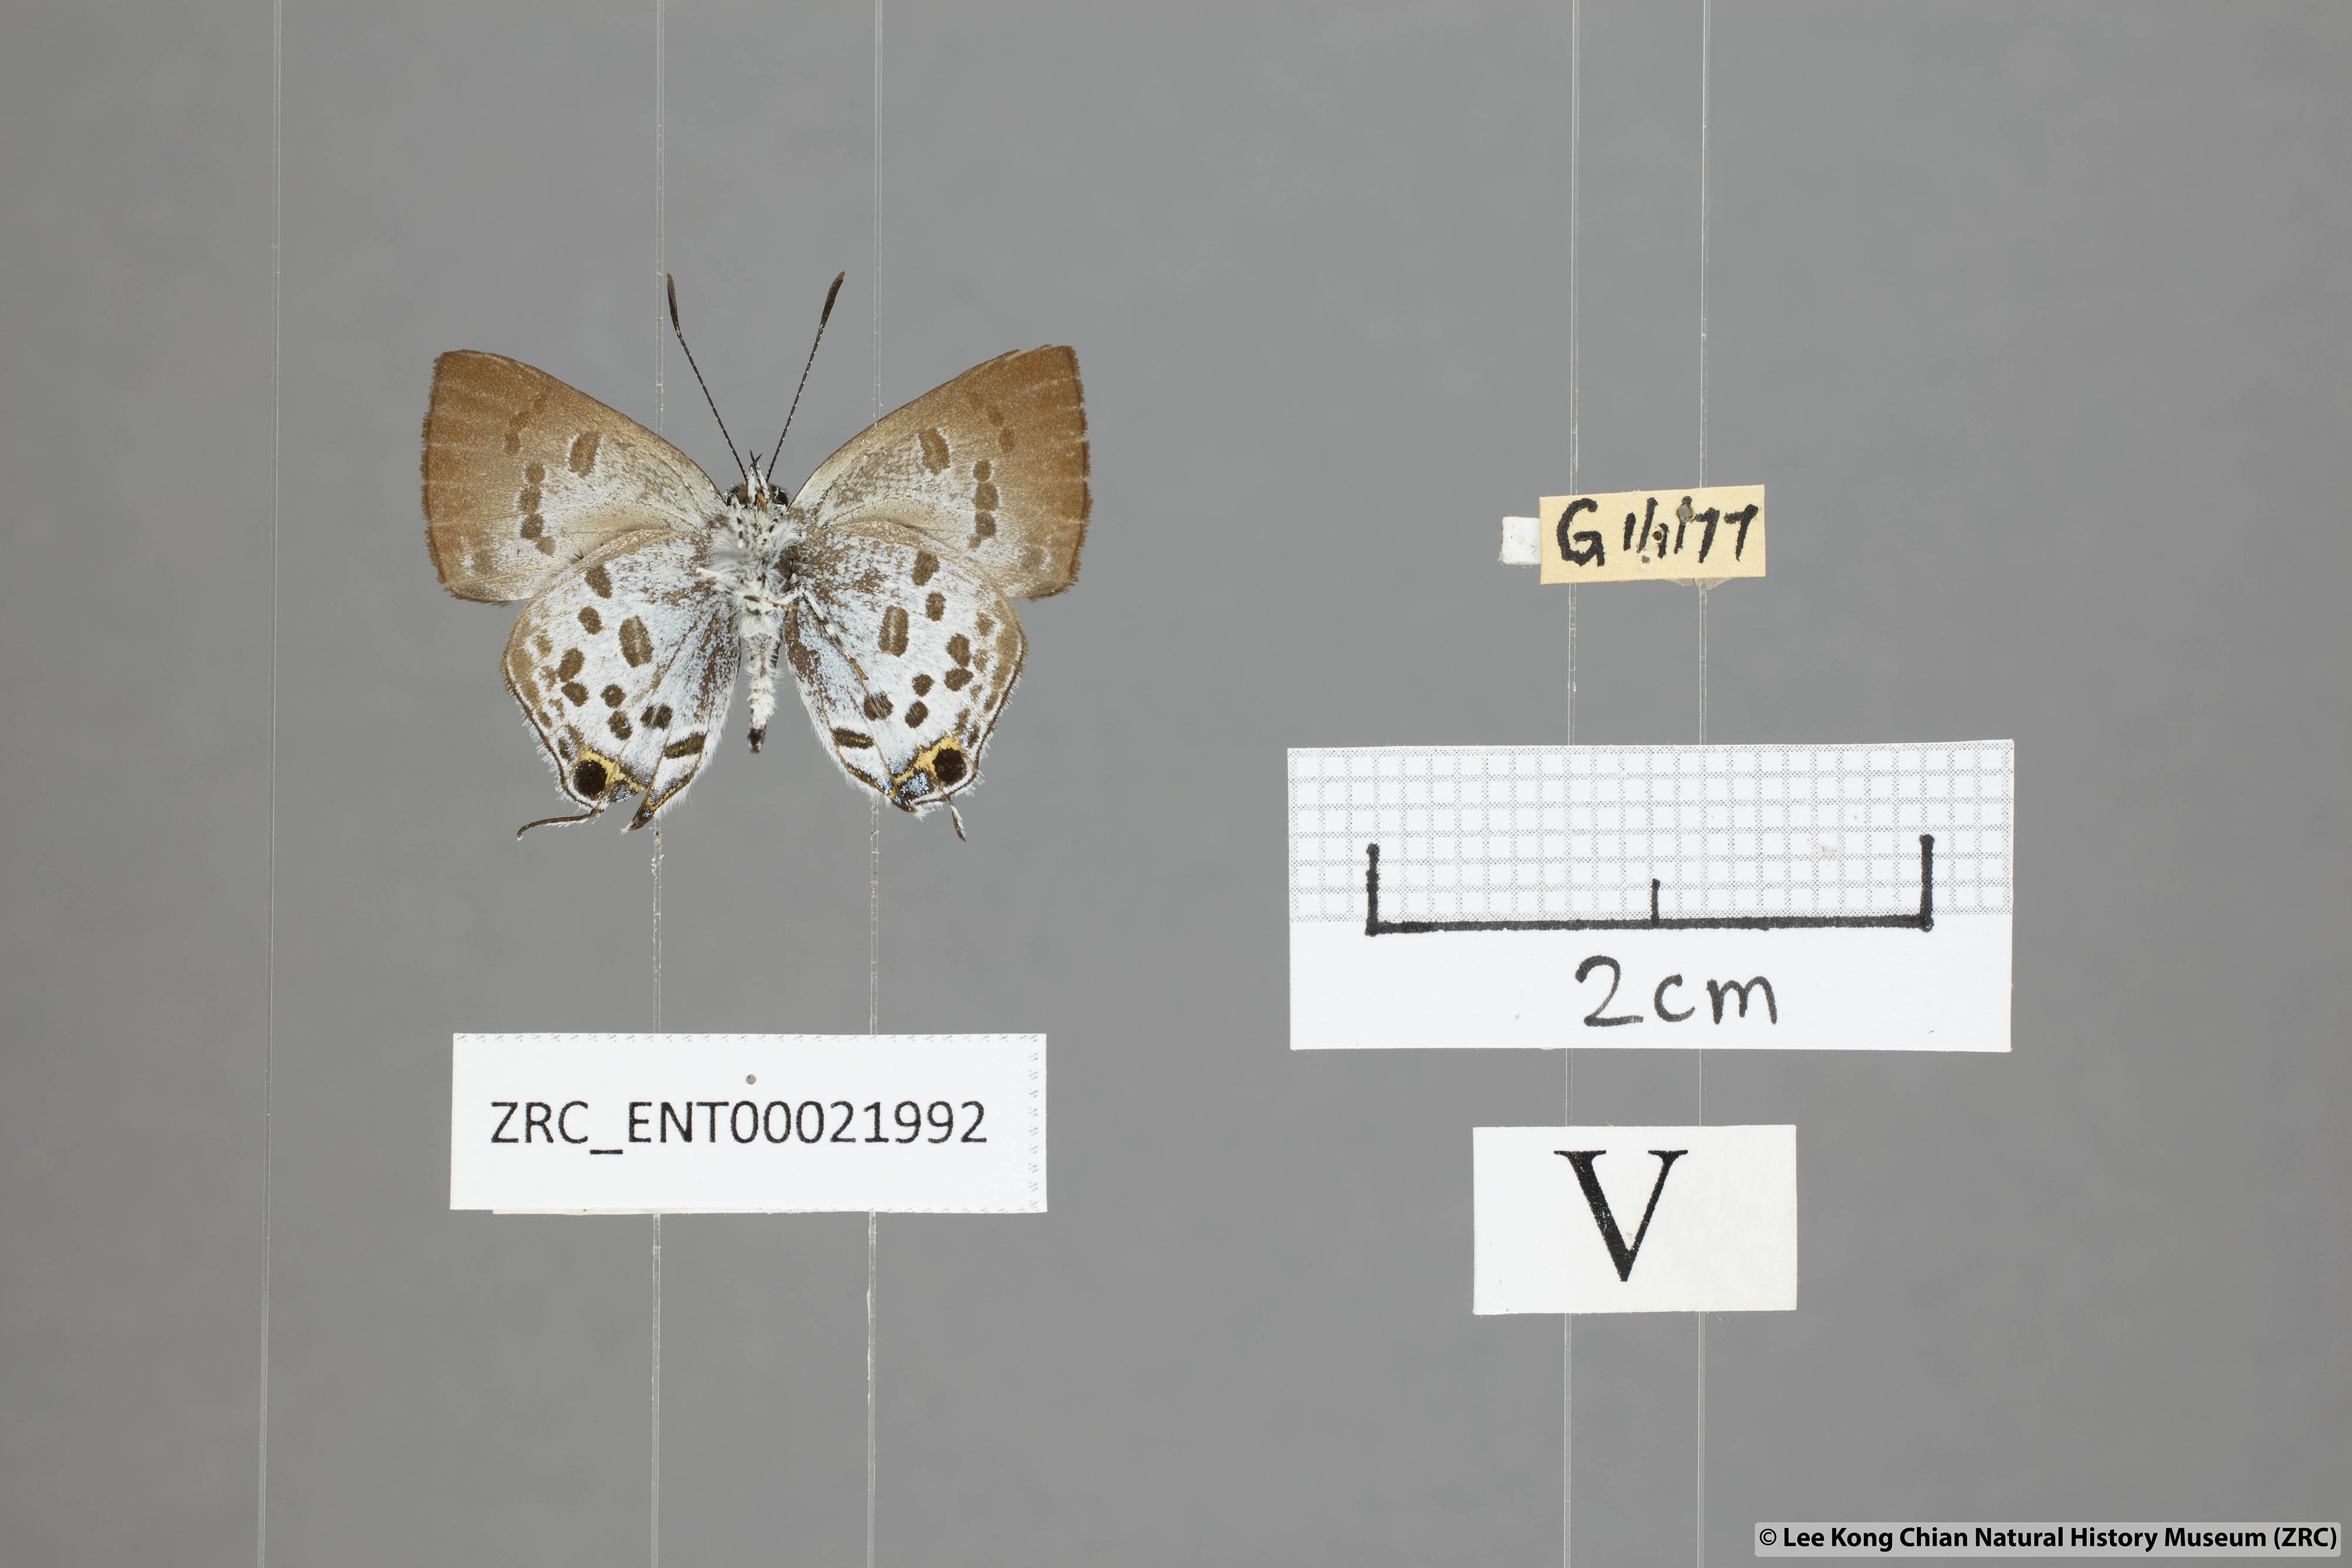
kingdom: Animalia
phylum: Arthropoda
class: Insecta
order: Lepidoptera
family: Lycaenidae
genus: Sinthusa
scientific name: Sinthusa malika
